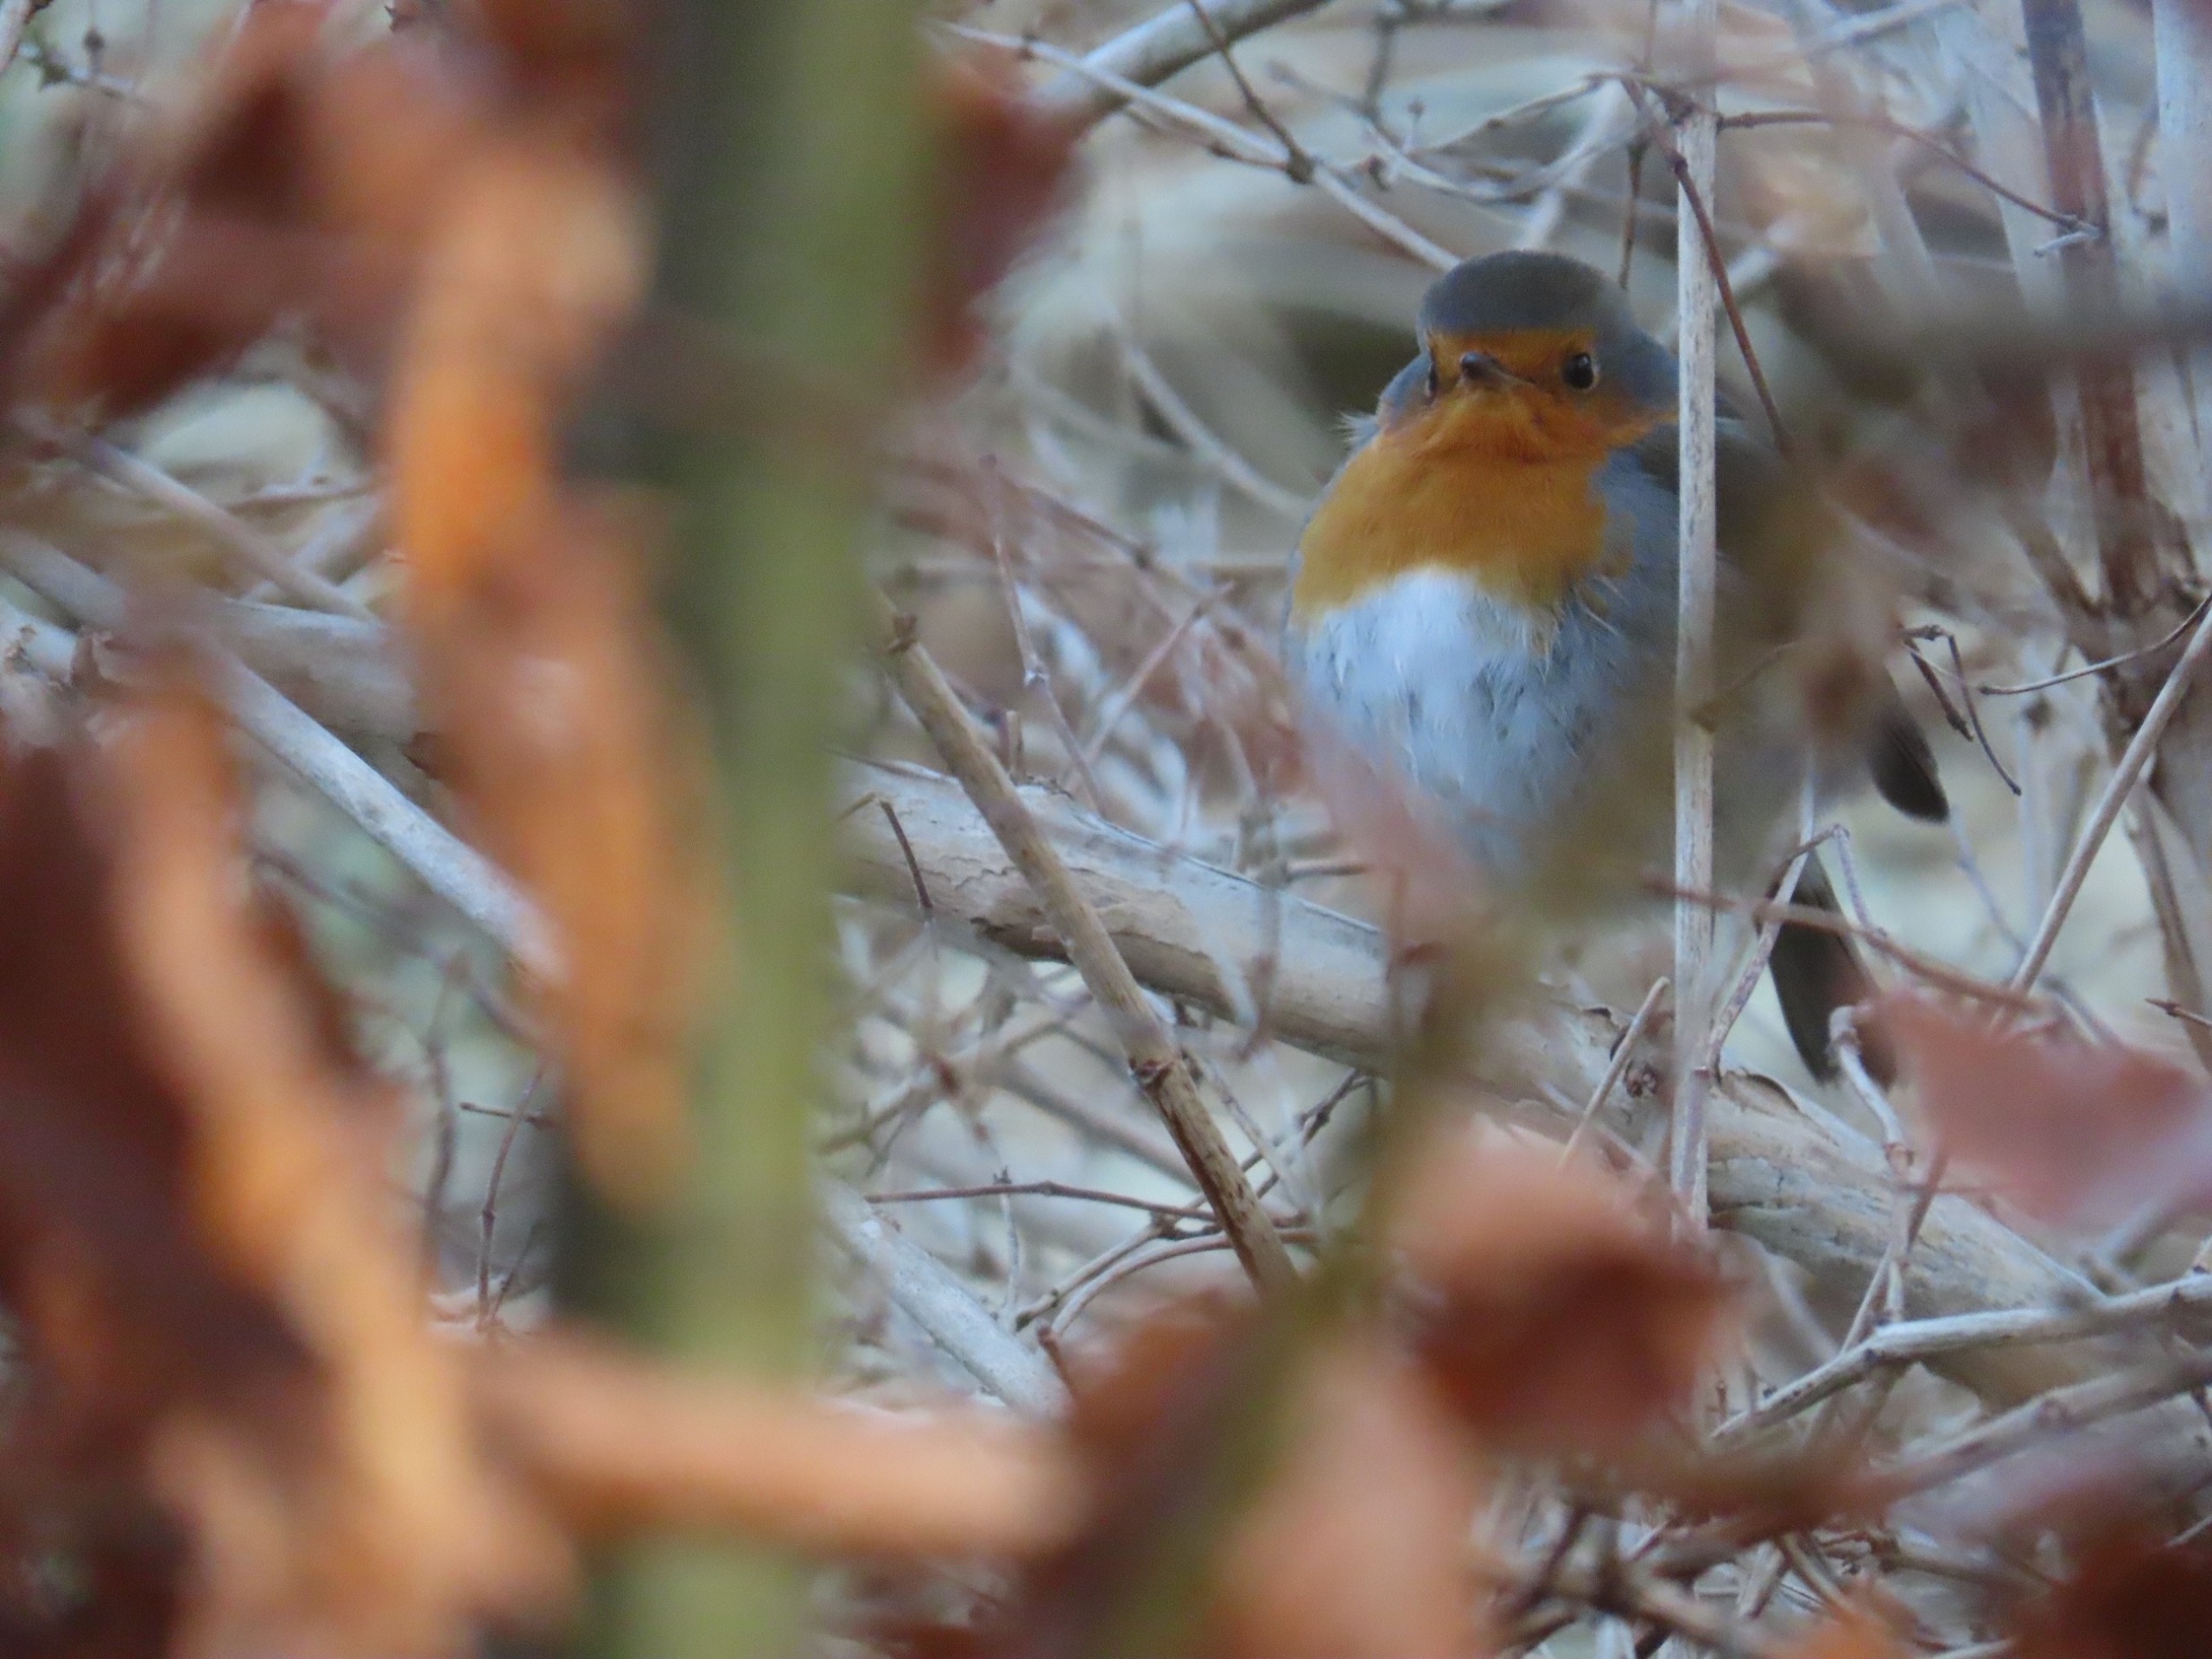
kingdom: Animalia
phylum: Chordata
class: Aves
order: Passeriformes
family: Muscicapidae
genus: Erithacus
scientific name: Erithacus rubecula
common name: Rødhals/rødkælk
